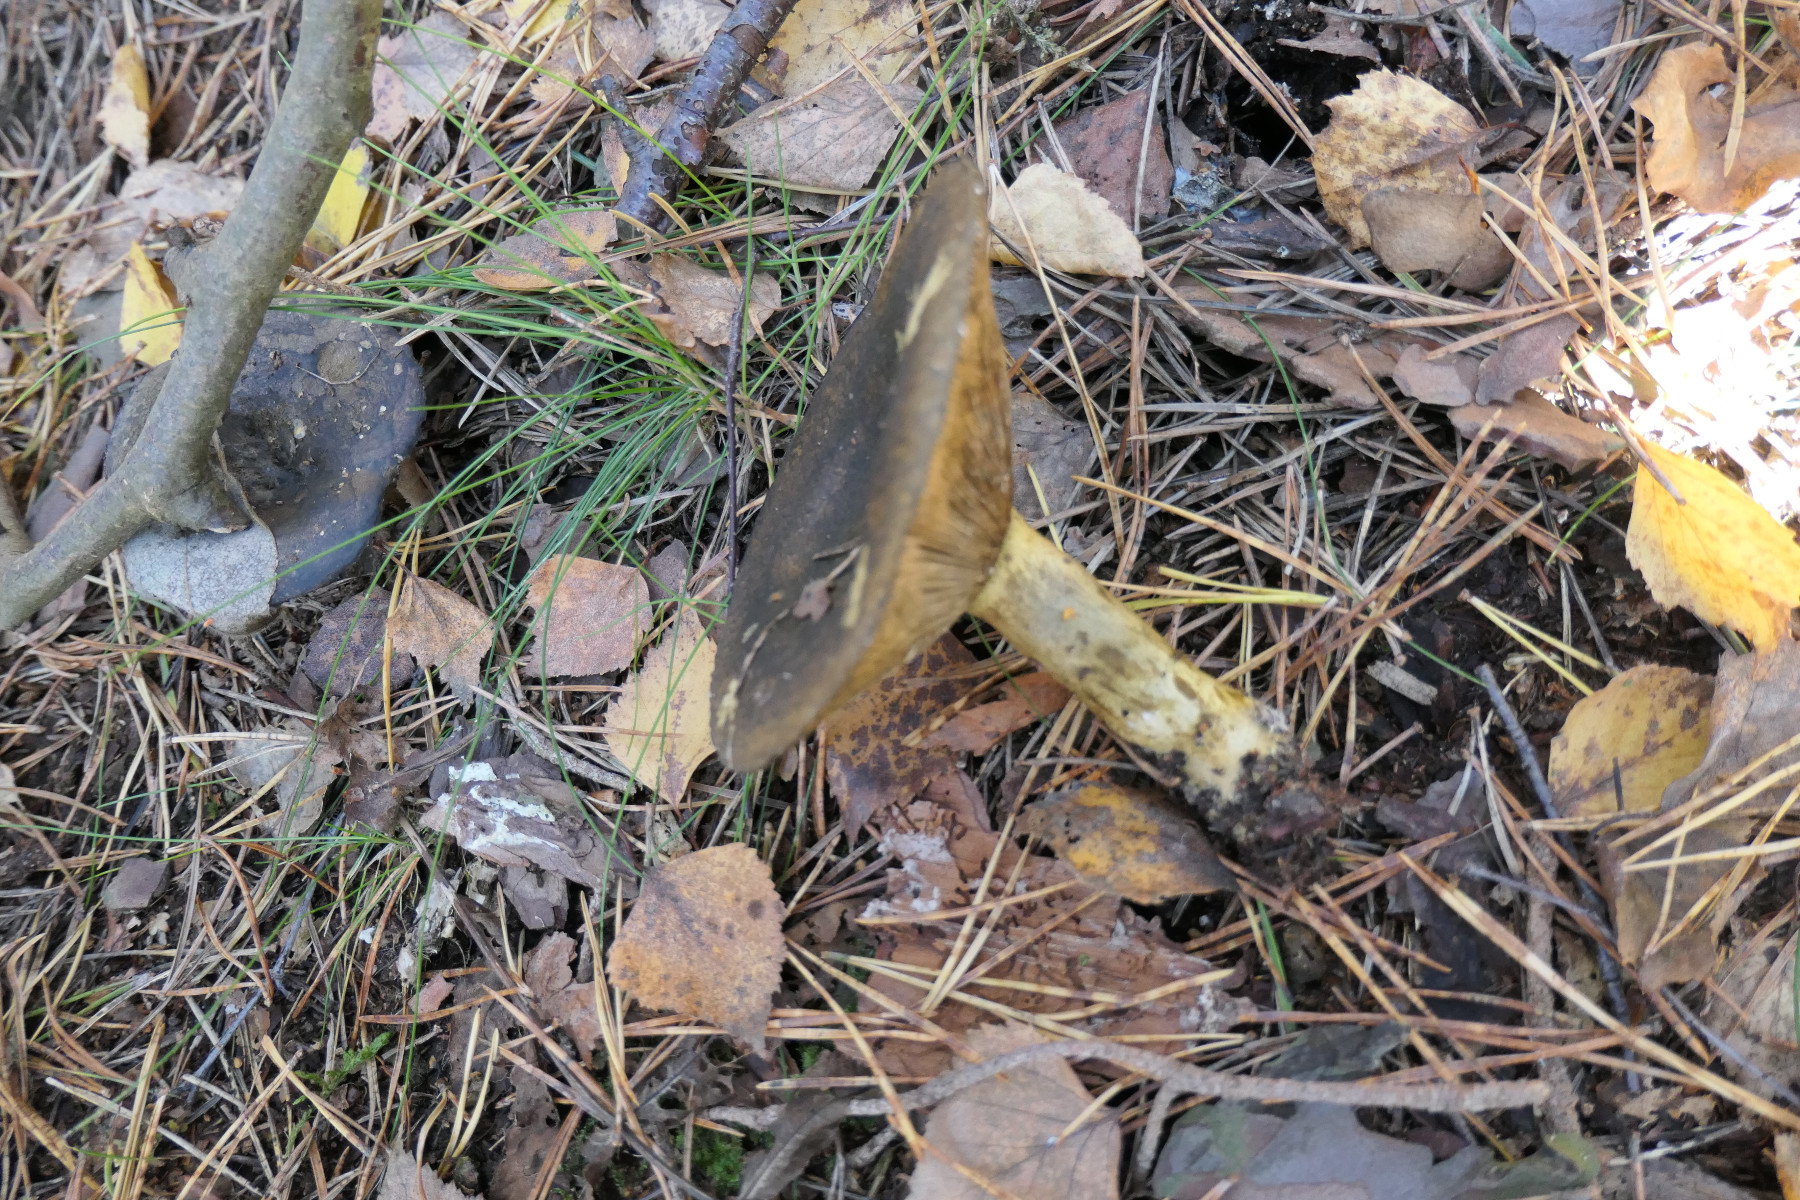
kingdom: Fungi
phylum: Basidiomycota
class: Agaricomycetes
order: Russulales
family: Russulaceae
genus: Lactarius
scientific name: Lactarius necator
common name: manddraber-mælkehat
